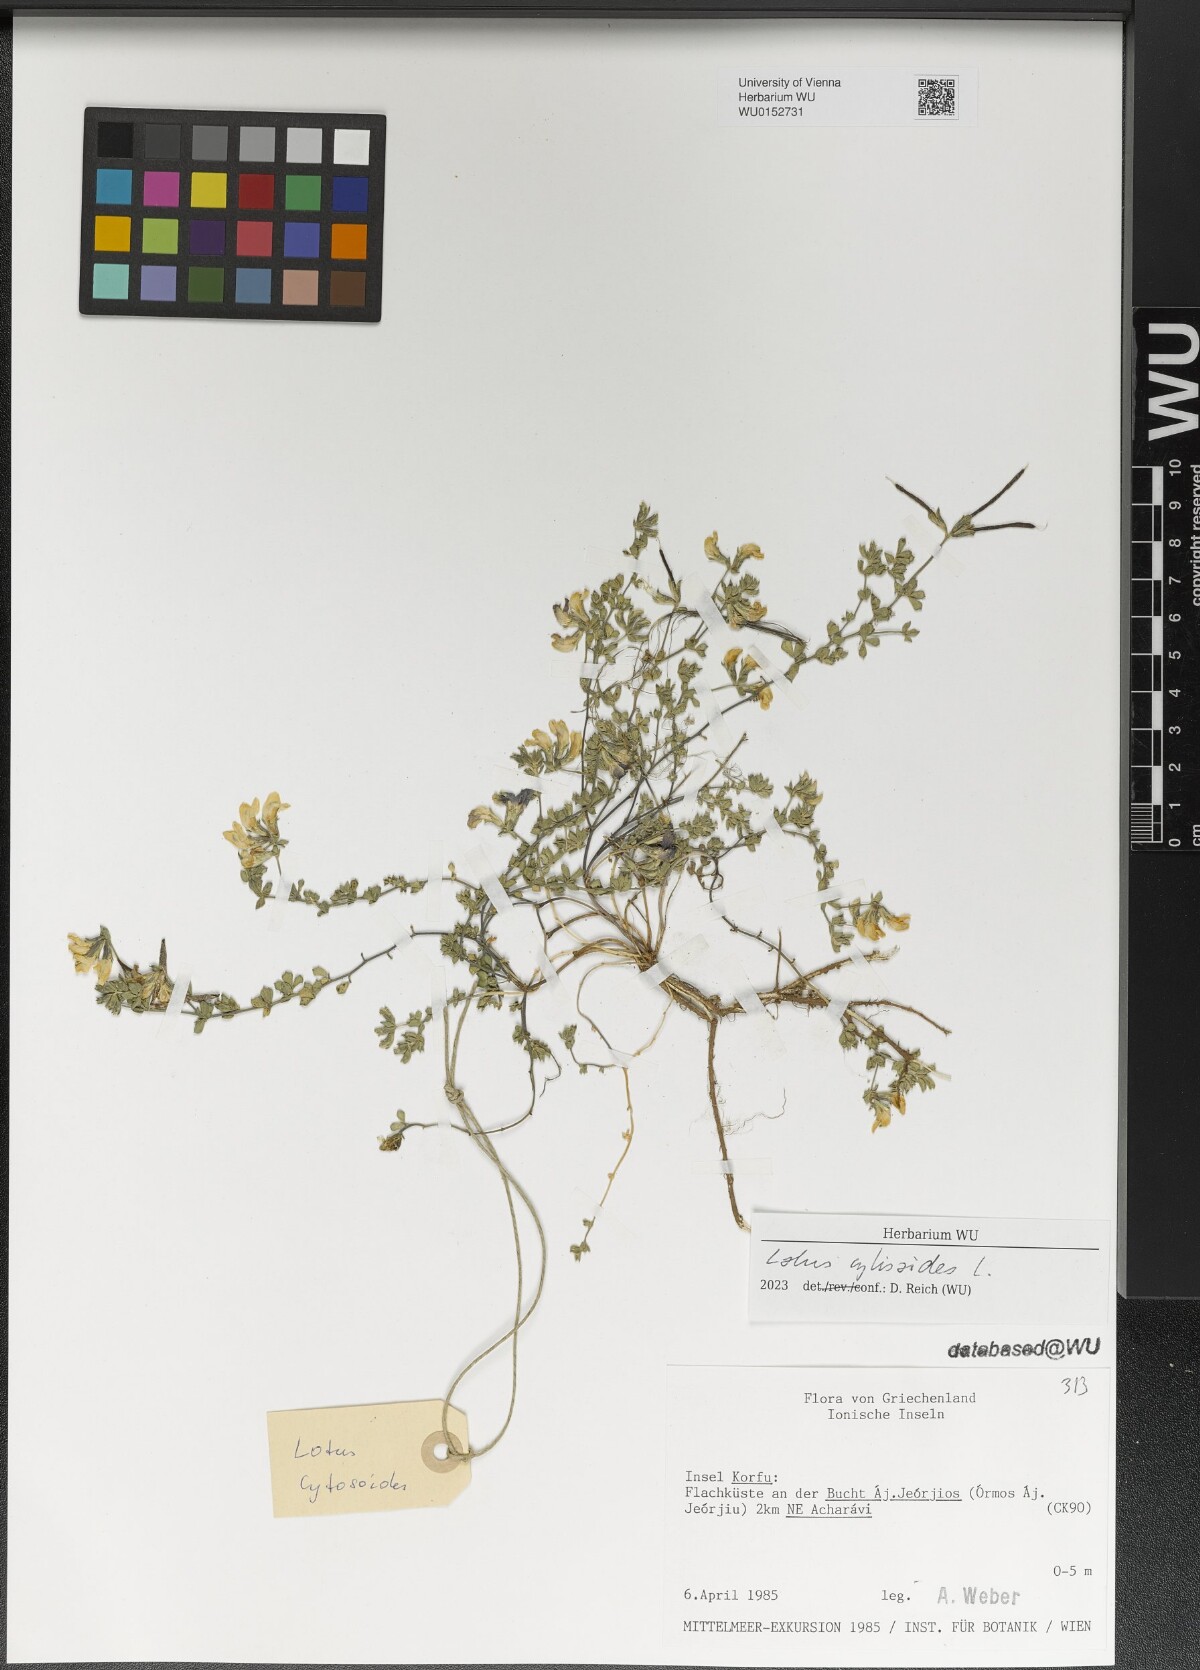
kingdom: Plantae
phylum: Tracheophyta
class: Magnoliopsida
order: Fabales
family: Fabaceae
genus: Lotus
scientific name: Lotus cytisoides
